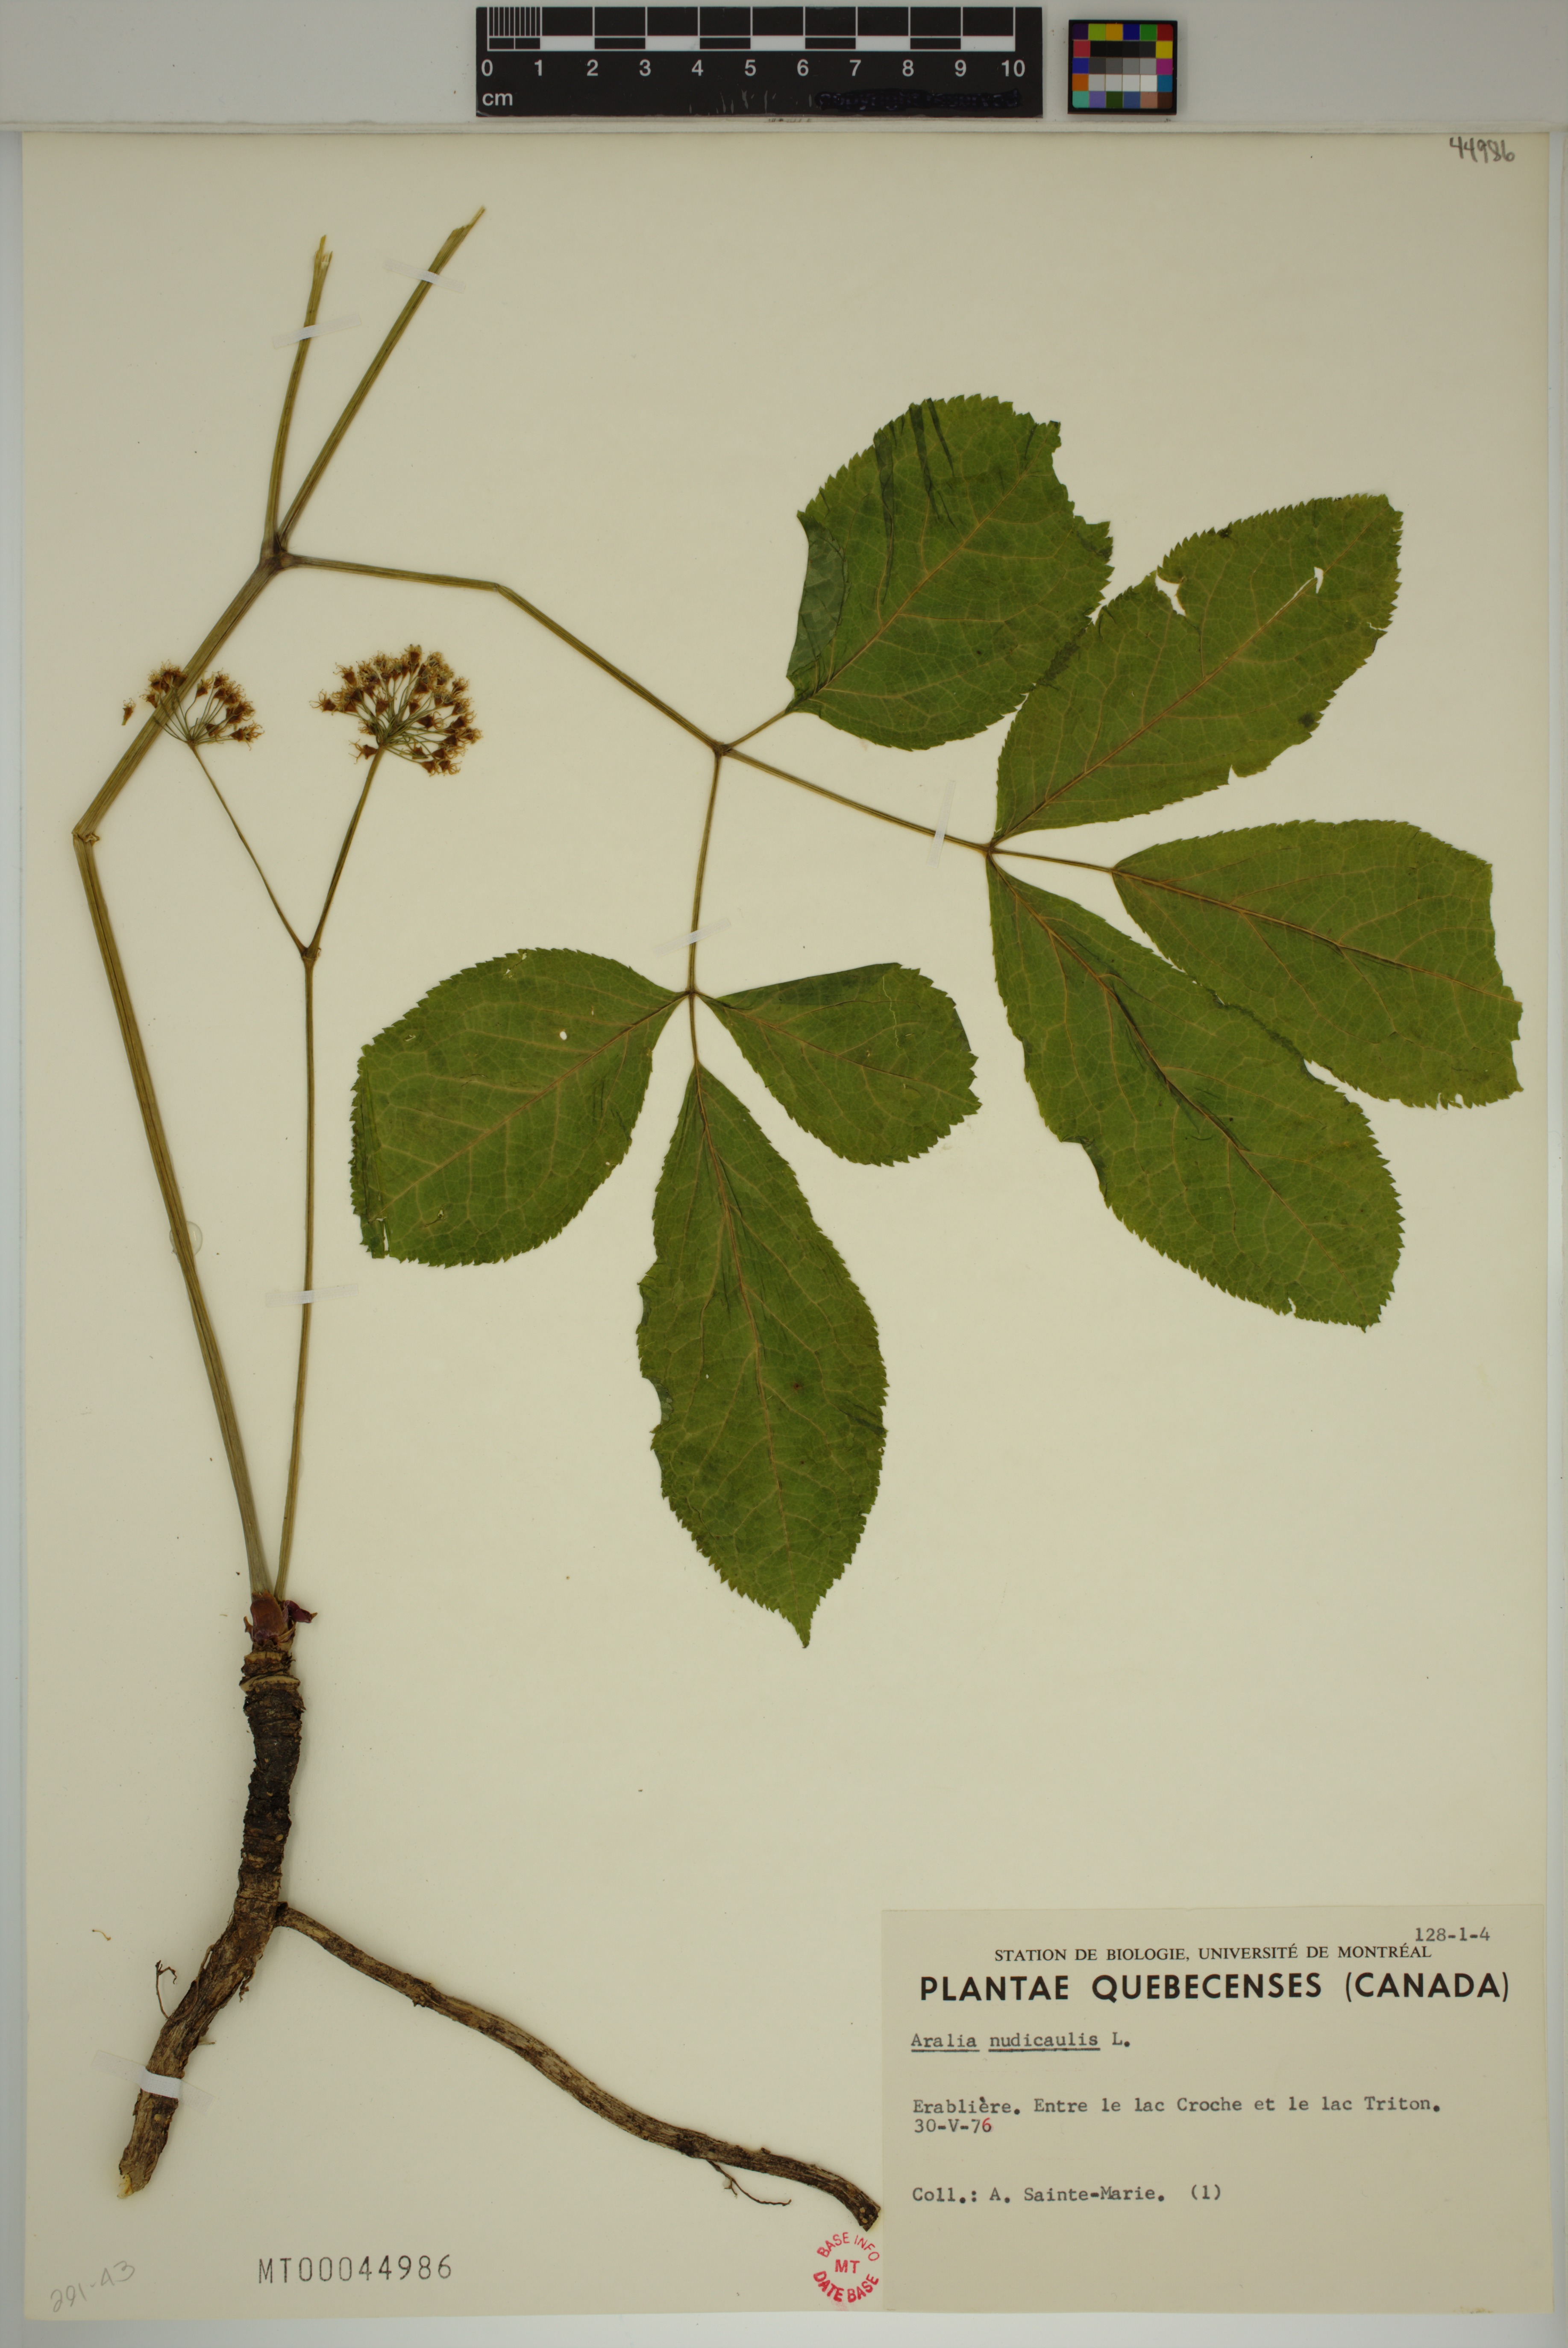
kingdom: Plantae
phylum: Tracheophyta
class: Magnoliopsida
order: Apiales
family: Araliaceae
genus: Aralia
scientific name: Aralia nudicaulis
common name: Wild sarsaparilla
